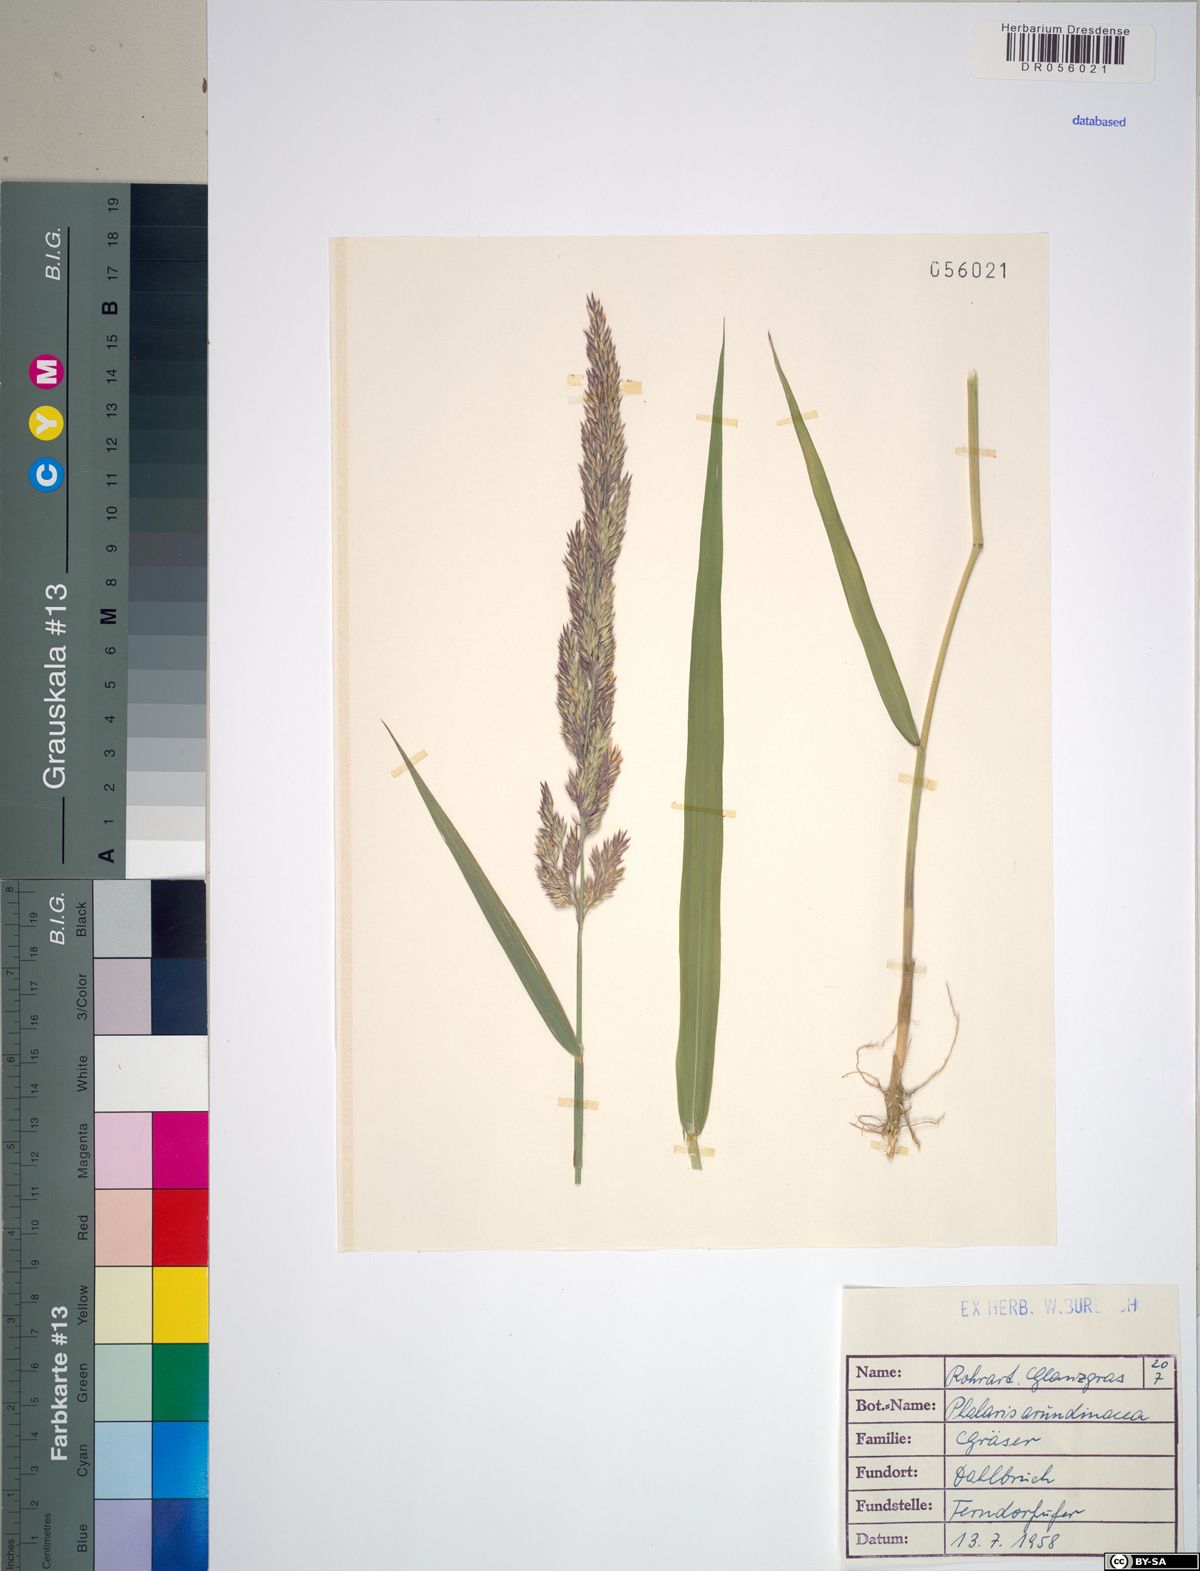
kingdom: Plantae
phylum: Tracheophyta
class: Liliopsida
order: Poales
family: Poaceae
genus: Phalaris
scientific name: Phalaris arundinacea
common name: Reed canary-grass
